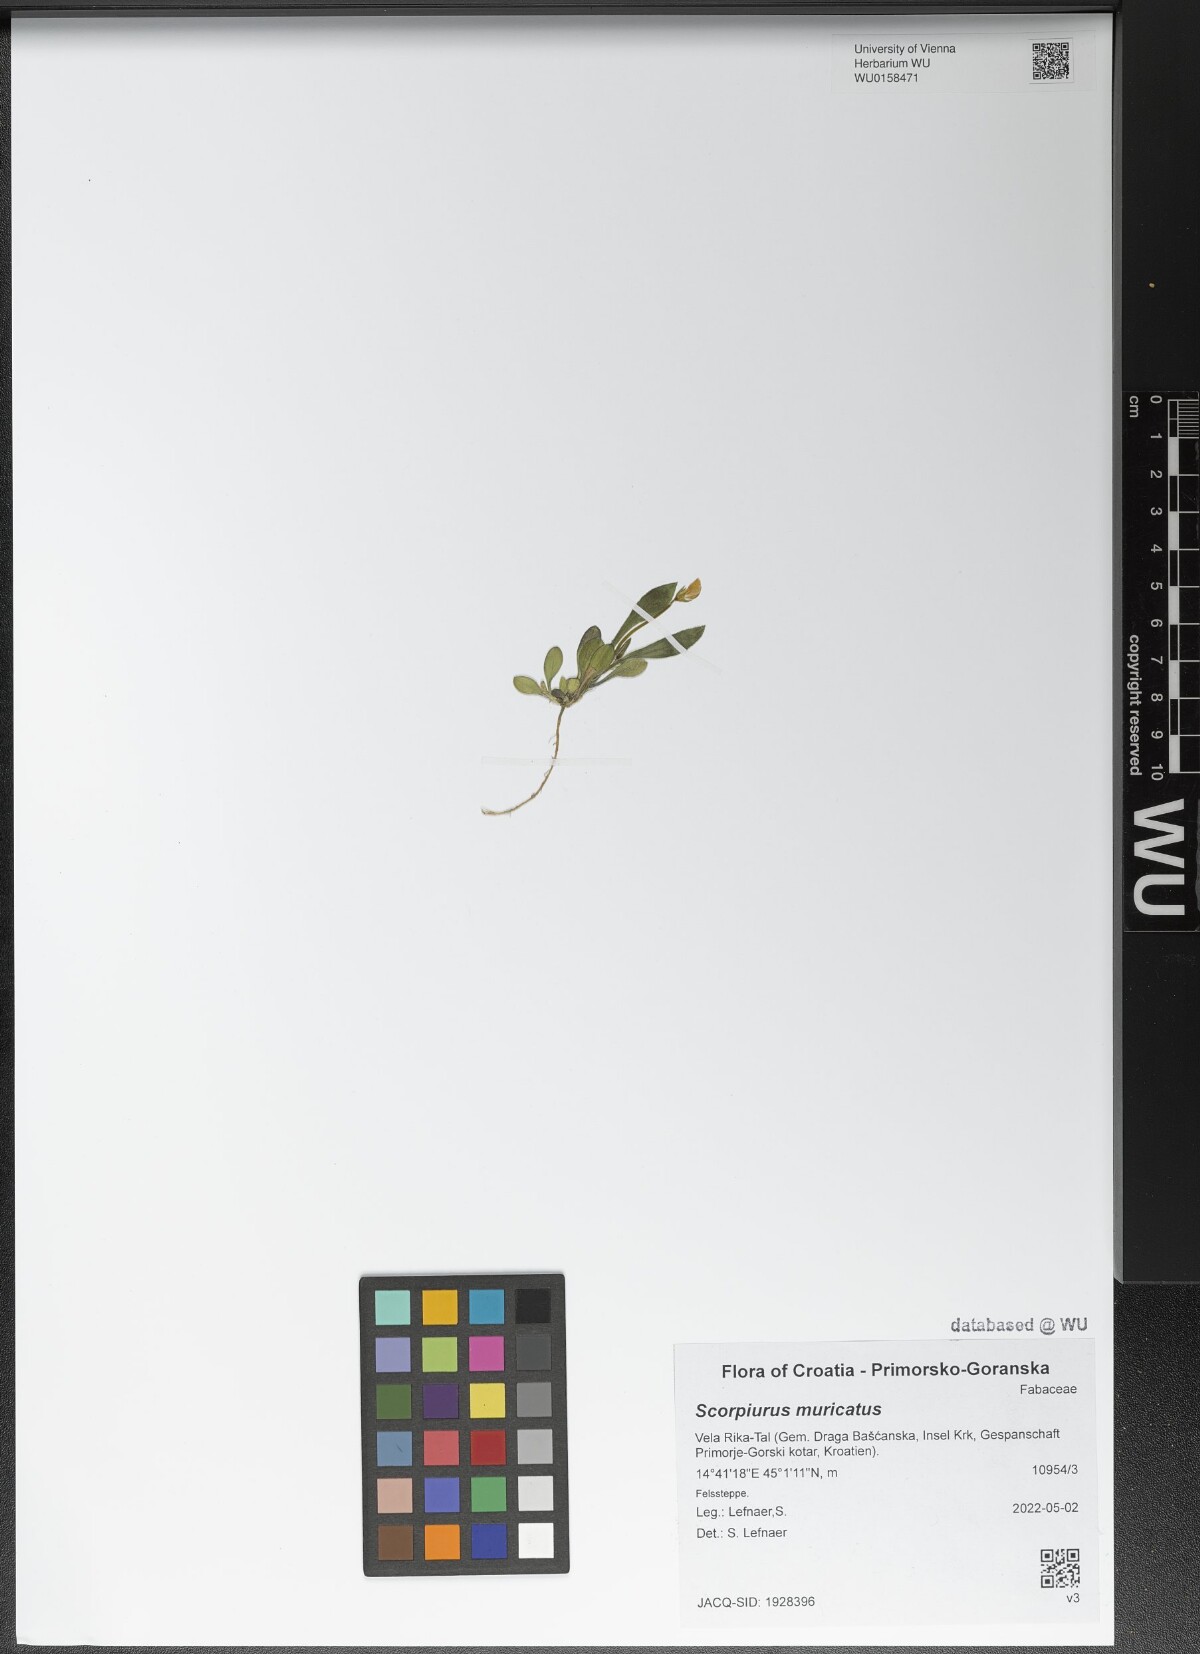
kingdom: Plantae
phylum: Tracheophyta
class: Magnoliopsida
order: Fabales
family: Fabaceae
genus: Scorpiurus
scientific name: Scorpiurus muricatus
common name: Caterpillar-plant
